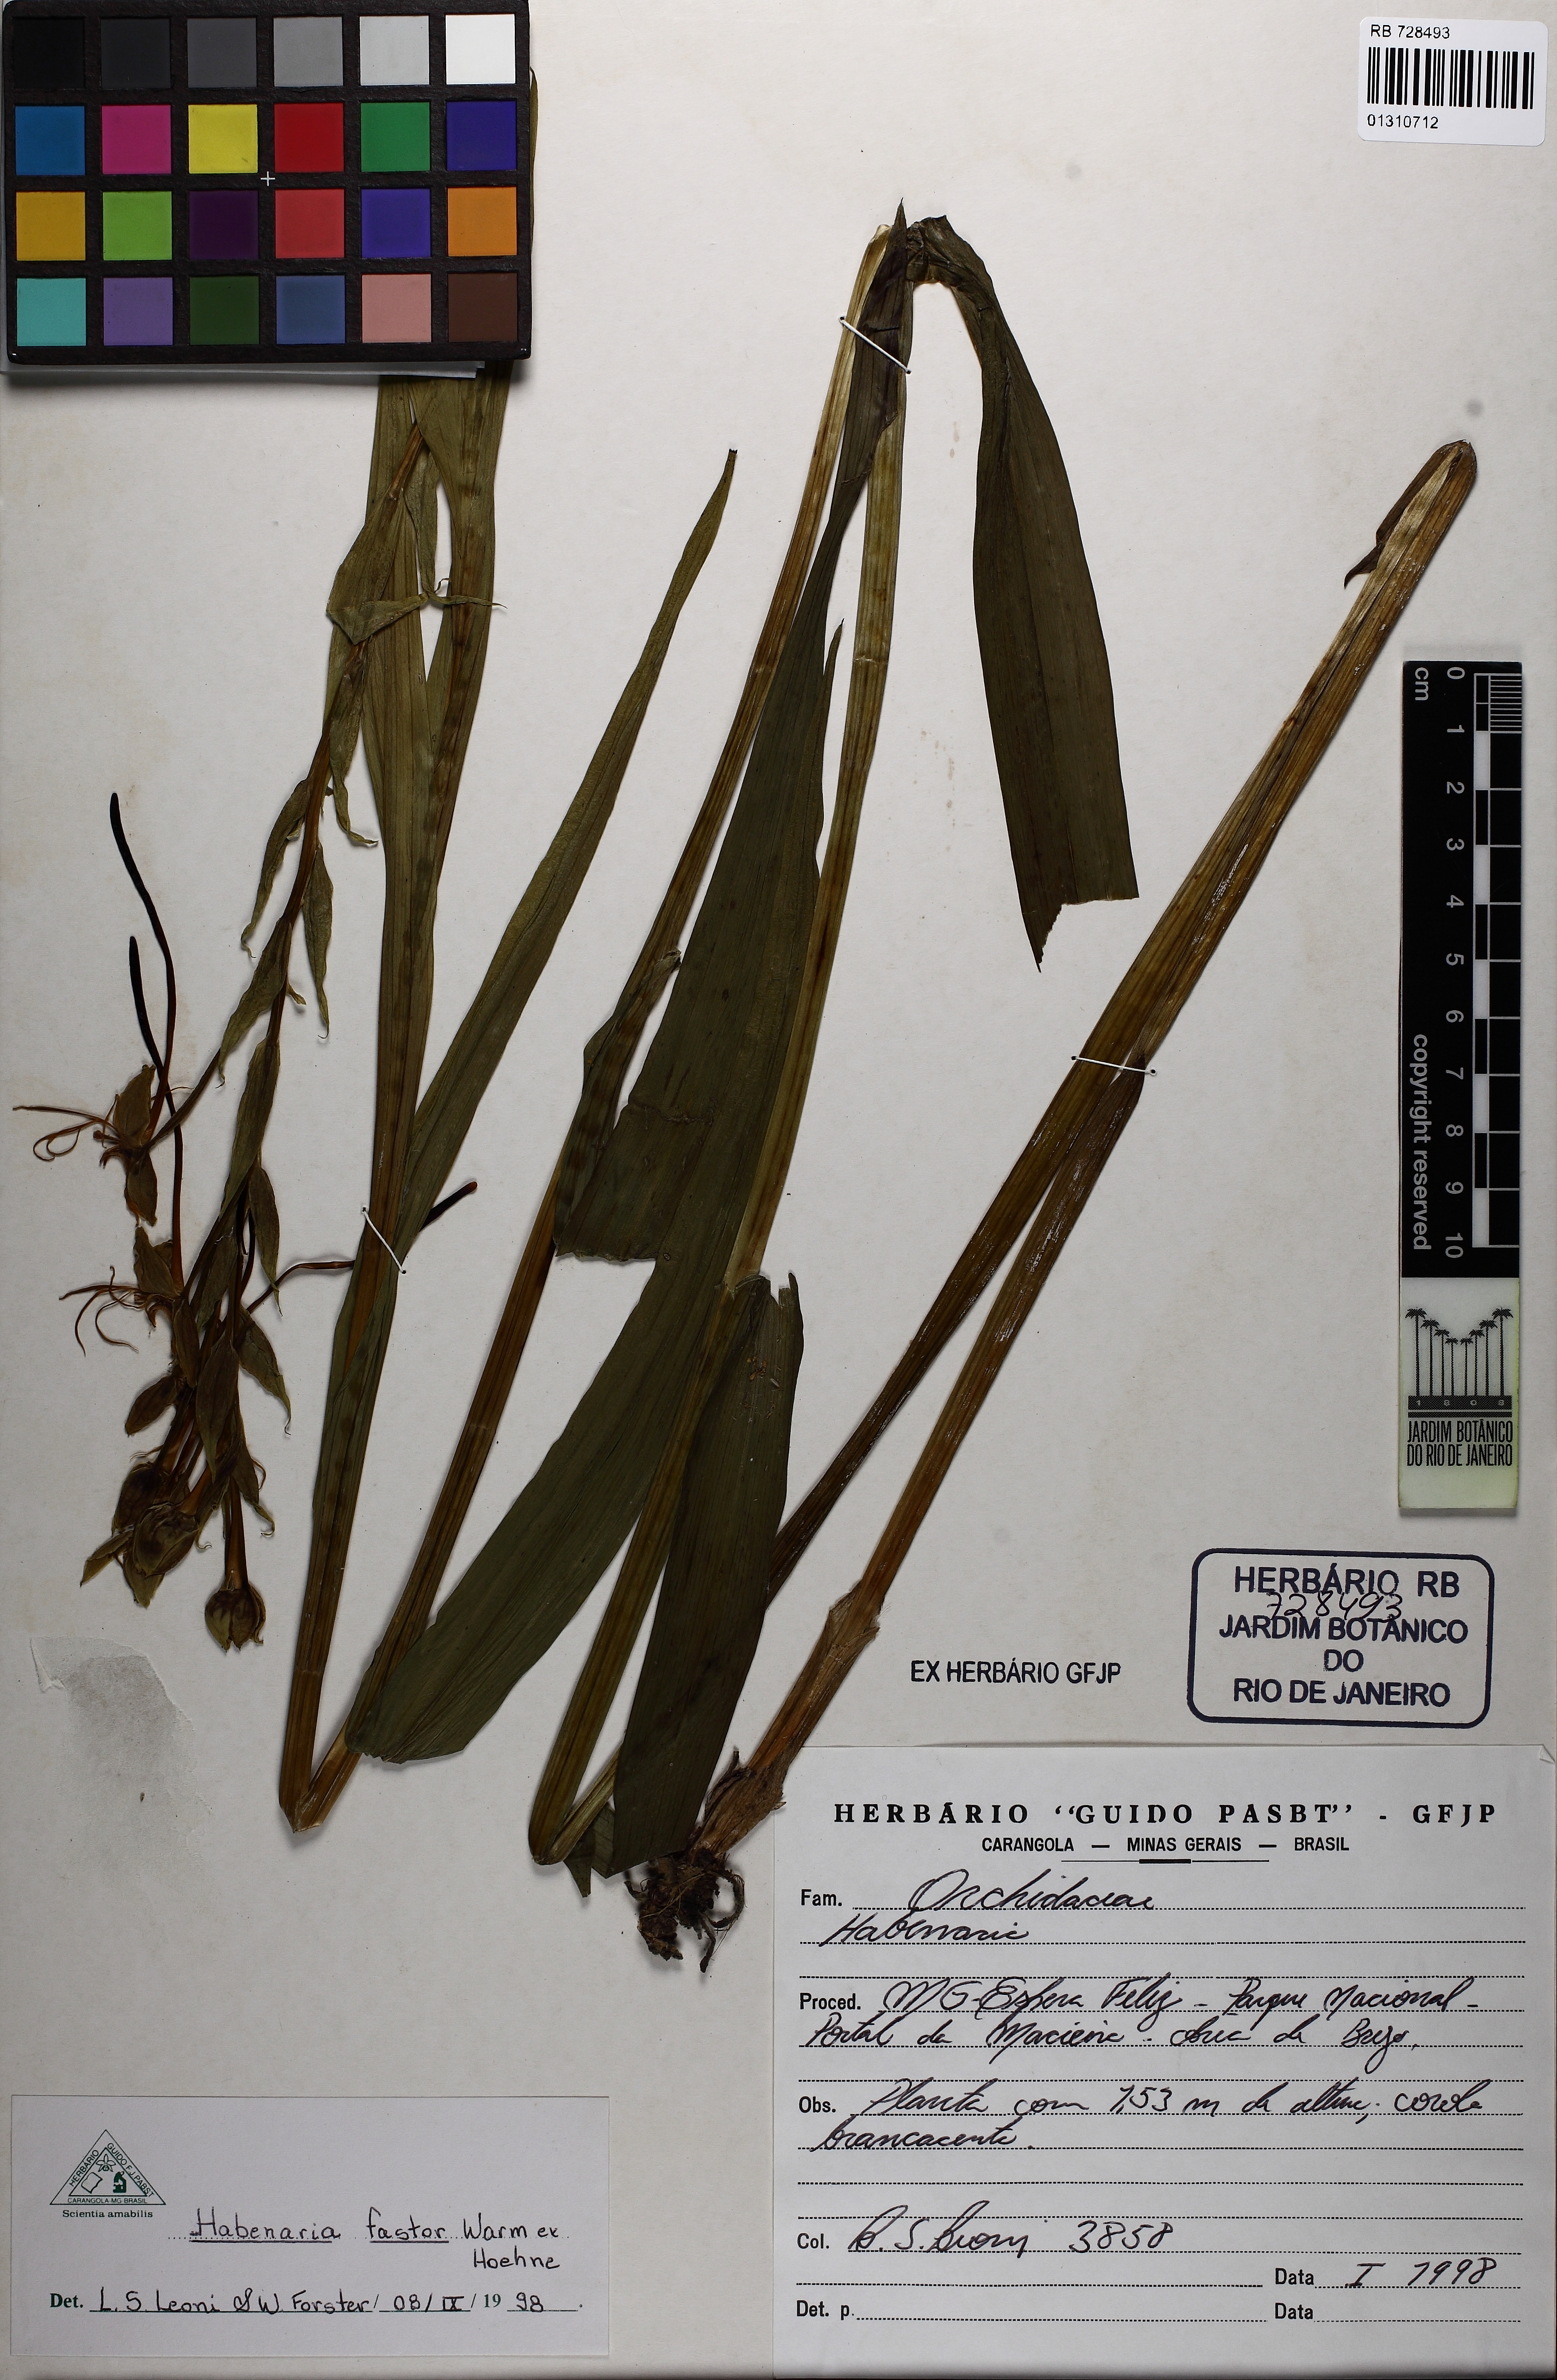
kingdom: Plantae
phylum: Tracheophyta
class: Liliopsida
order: Asparagales
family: Orchidaceae
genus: Habenaria
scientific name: Habenaria gourlieana
